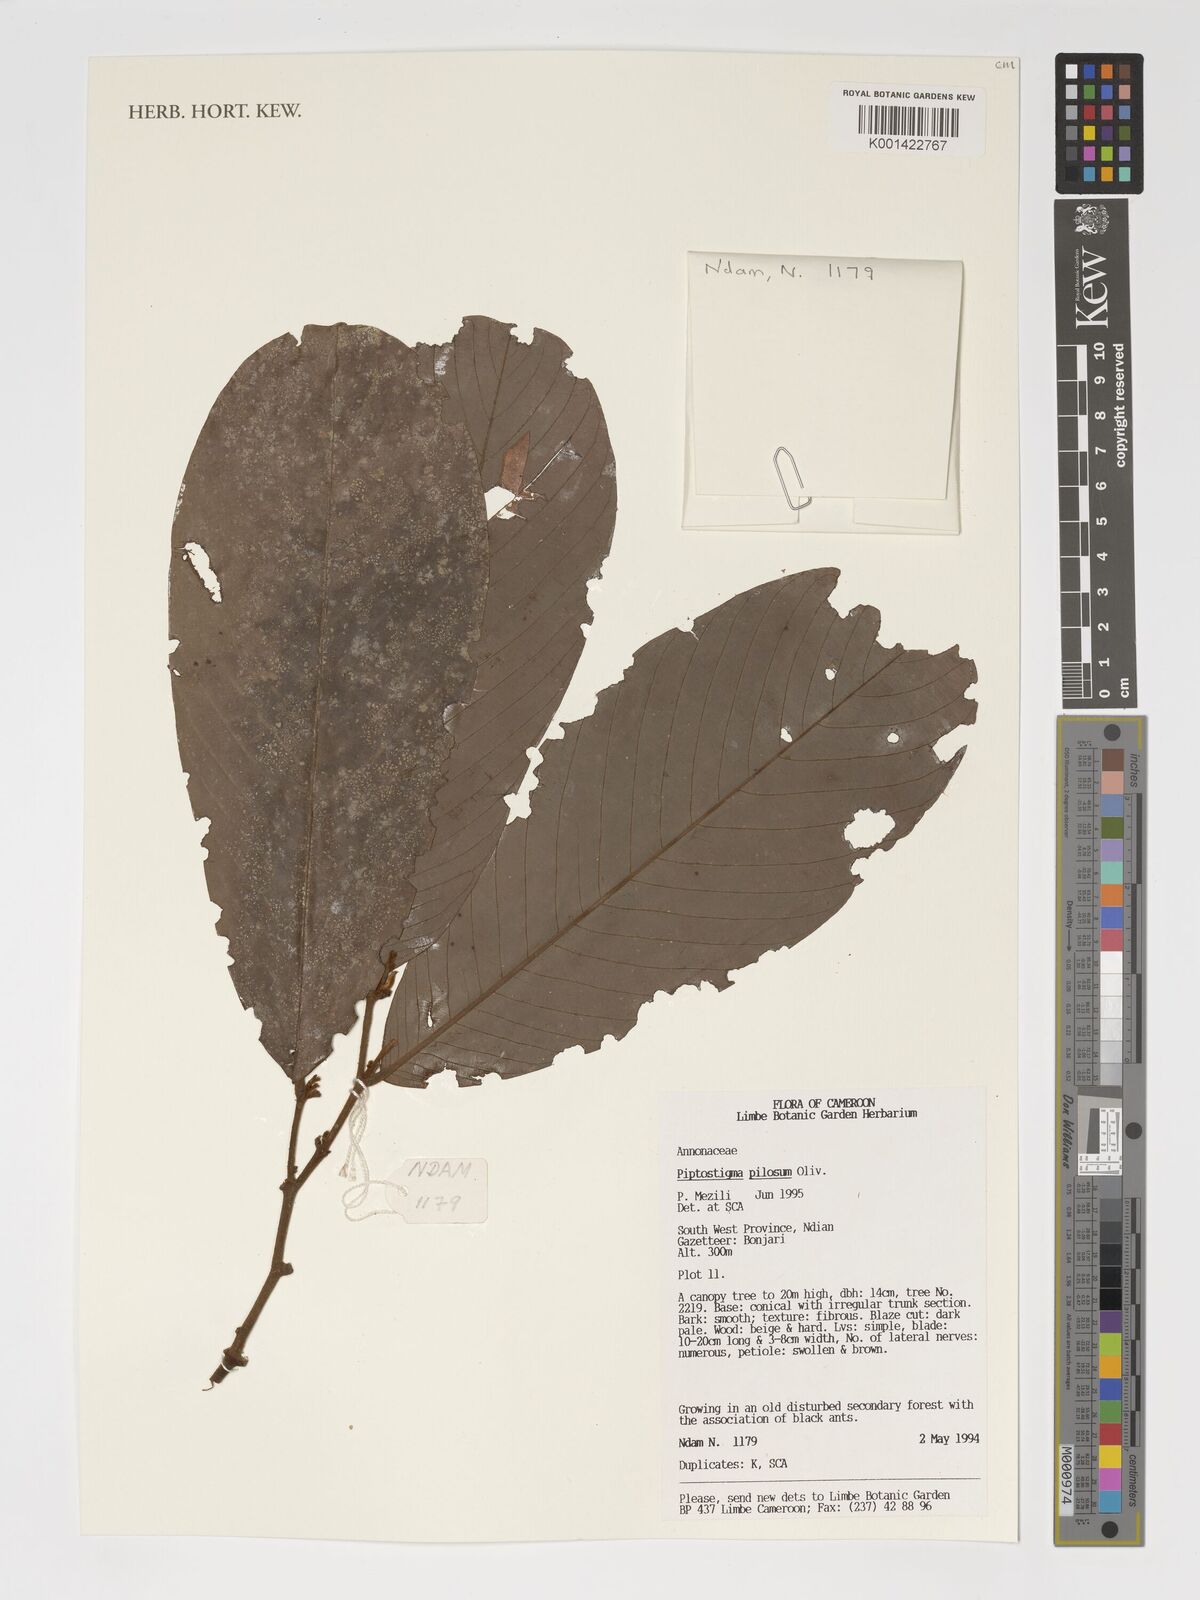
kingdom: Plantae
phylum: Tracheophyta
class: Magnoliopsida
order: Magnoliales
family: Annonaceae
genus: Piptostigma
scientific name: Piptostigma pilosum
